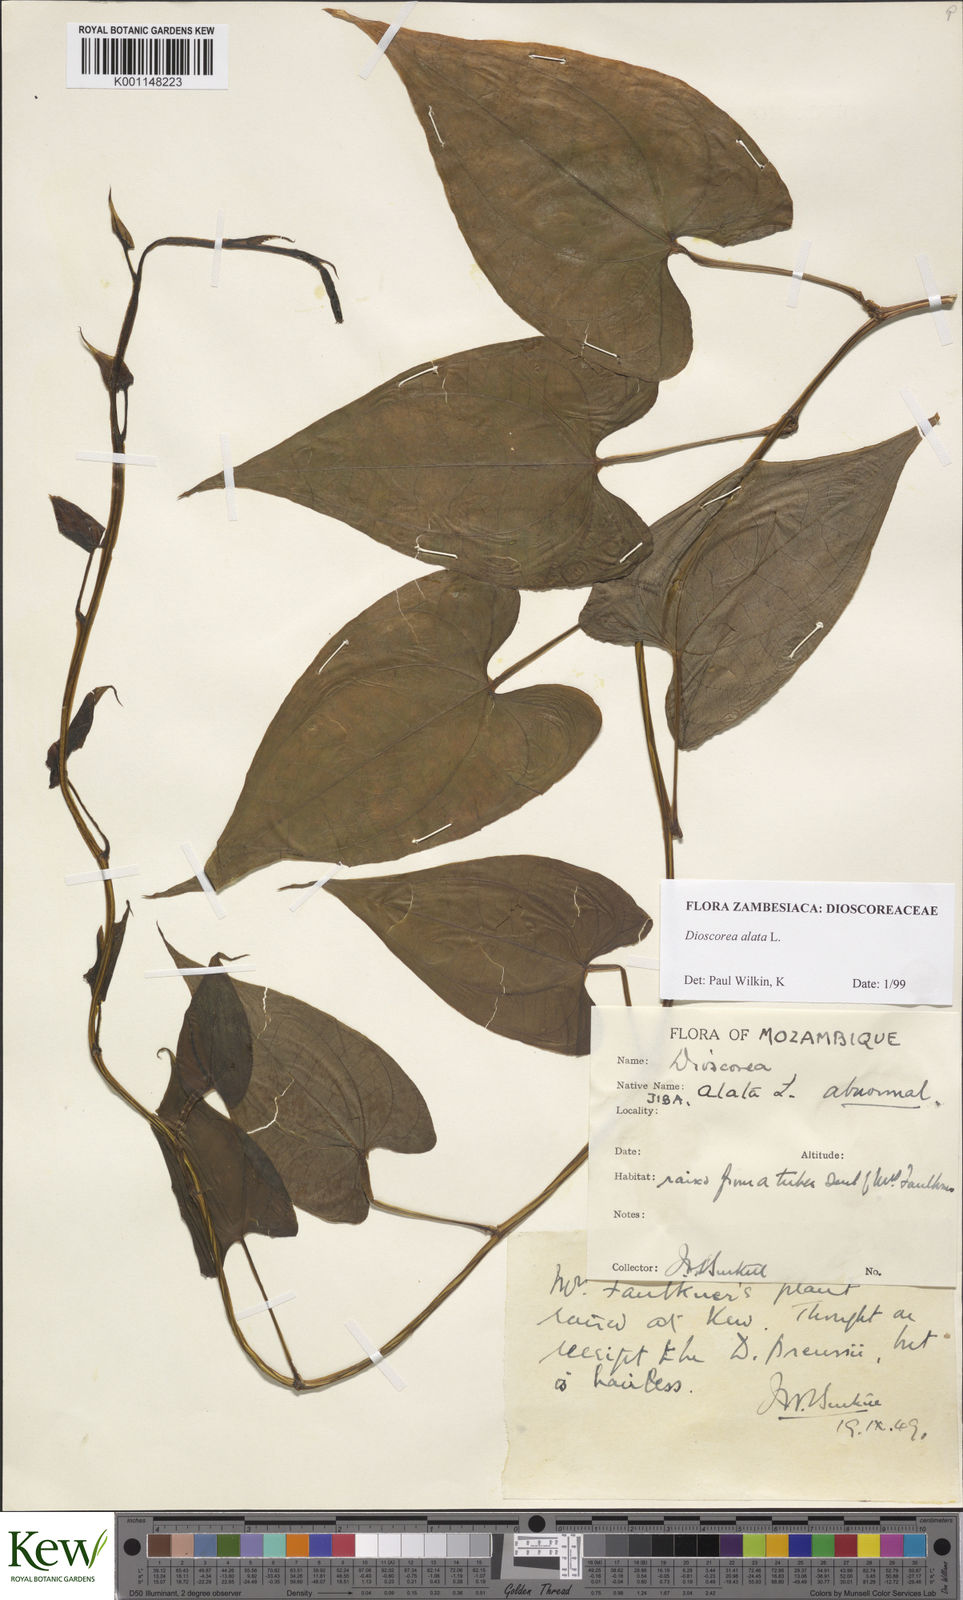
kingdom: Plantae
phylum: Tracheophyta
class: Liliopsida
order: Dioscoreales
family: Dioscoreaceae
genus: Dioscorea
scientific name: Dioscorea alata
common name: Water yam
